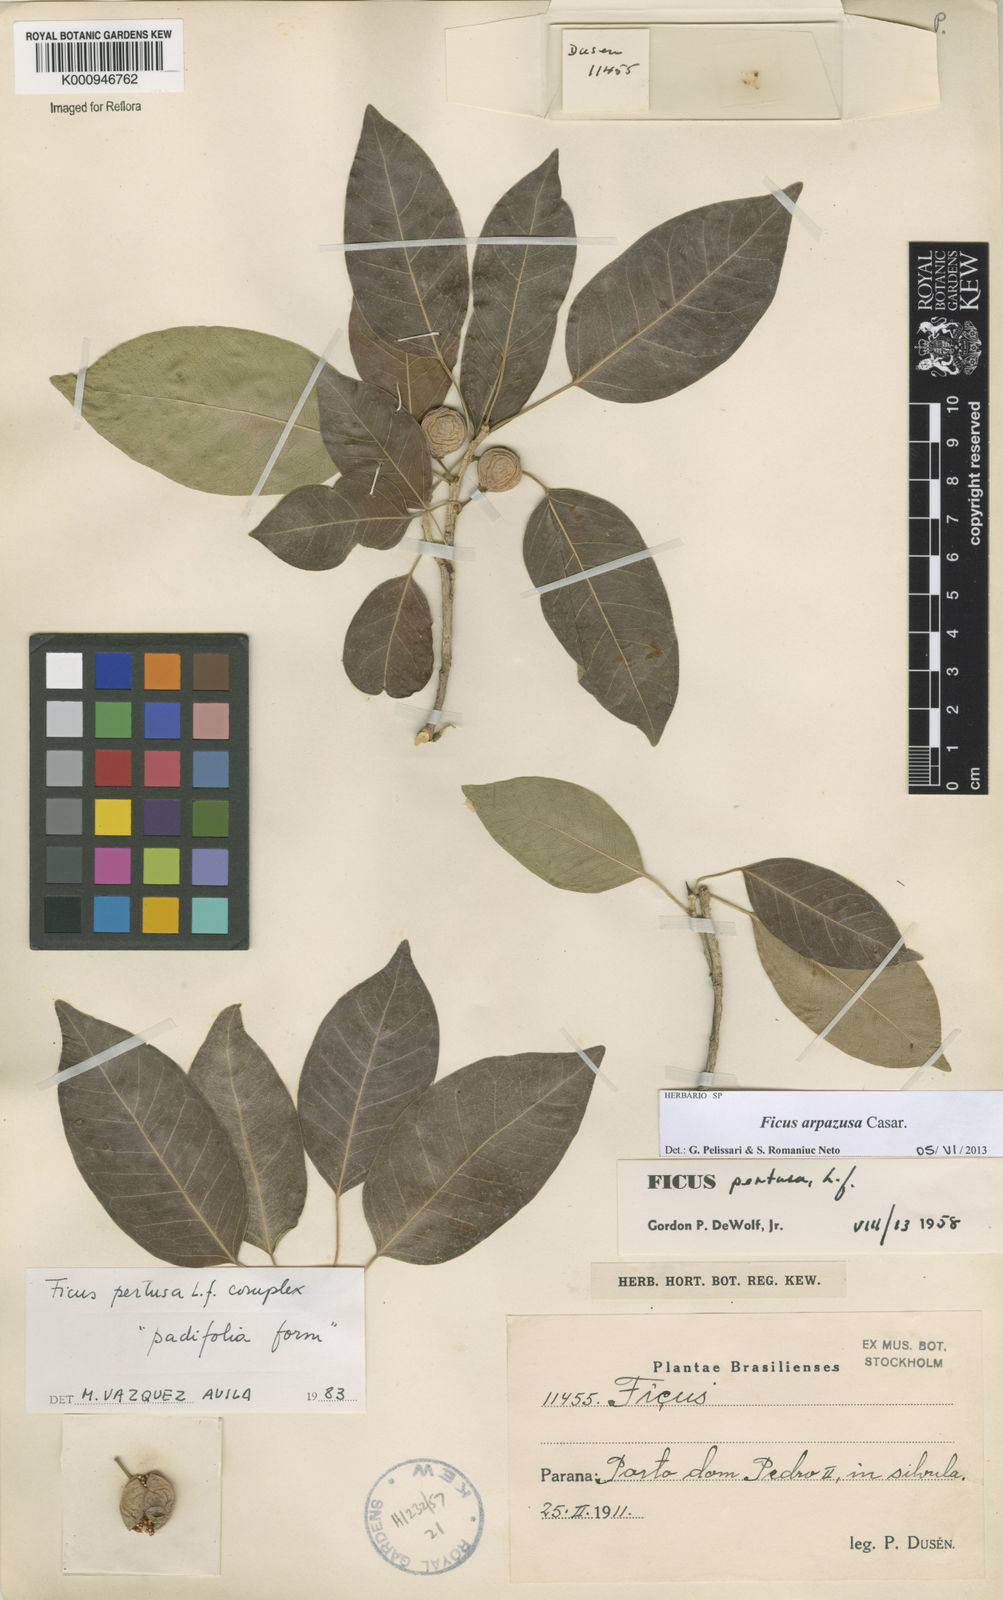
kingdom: Plantae
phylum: Tracheophyta
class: Magnoliopsida
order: Rosales
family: Moraceae
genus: Ficus
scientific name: Ficus arpazusa
